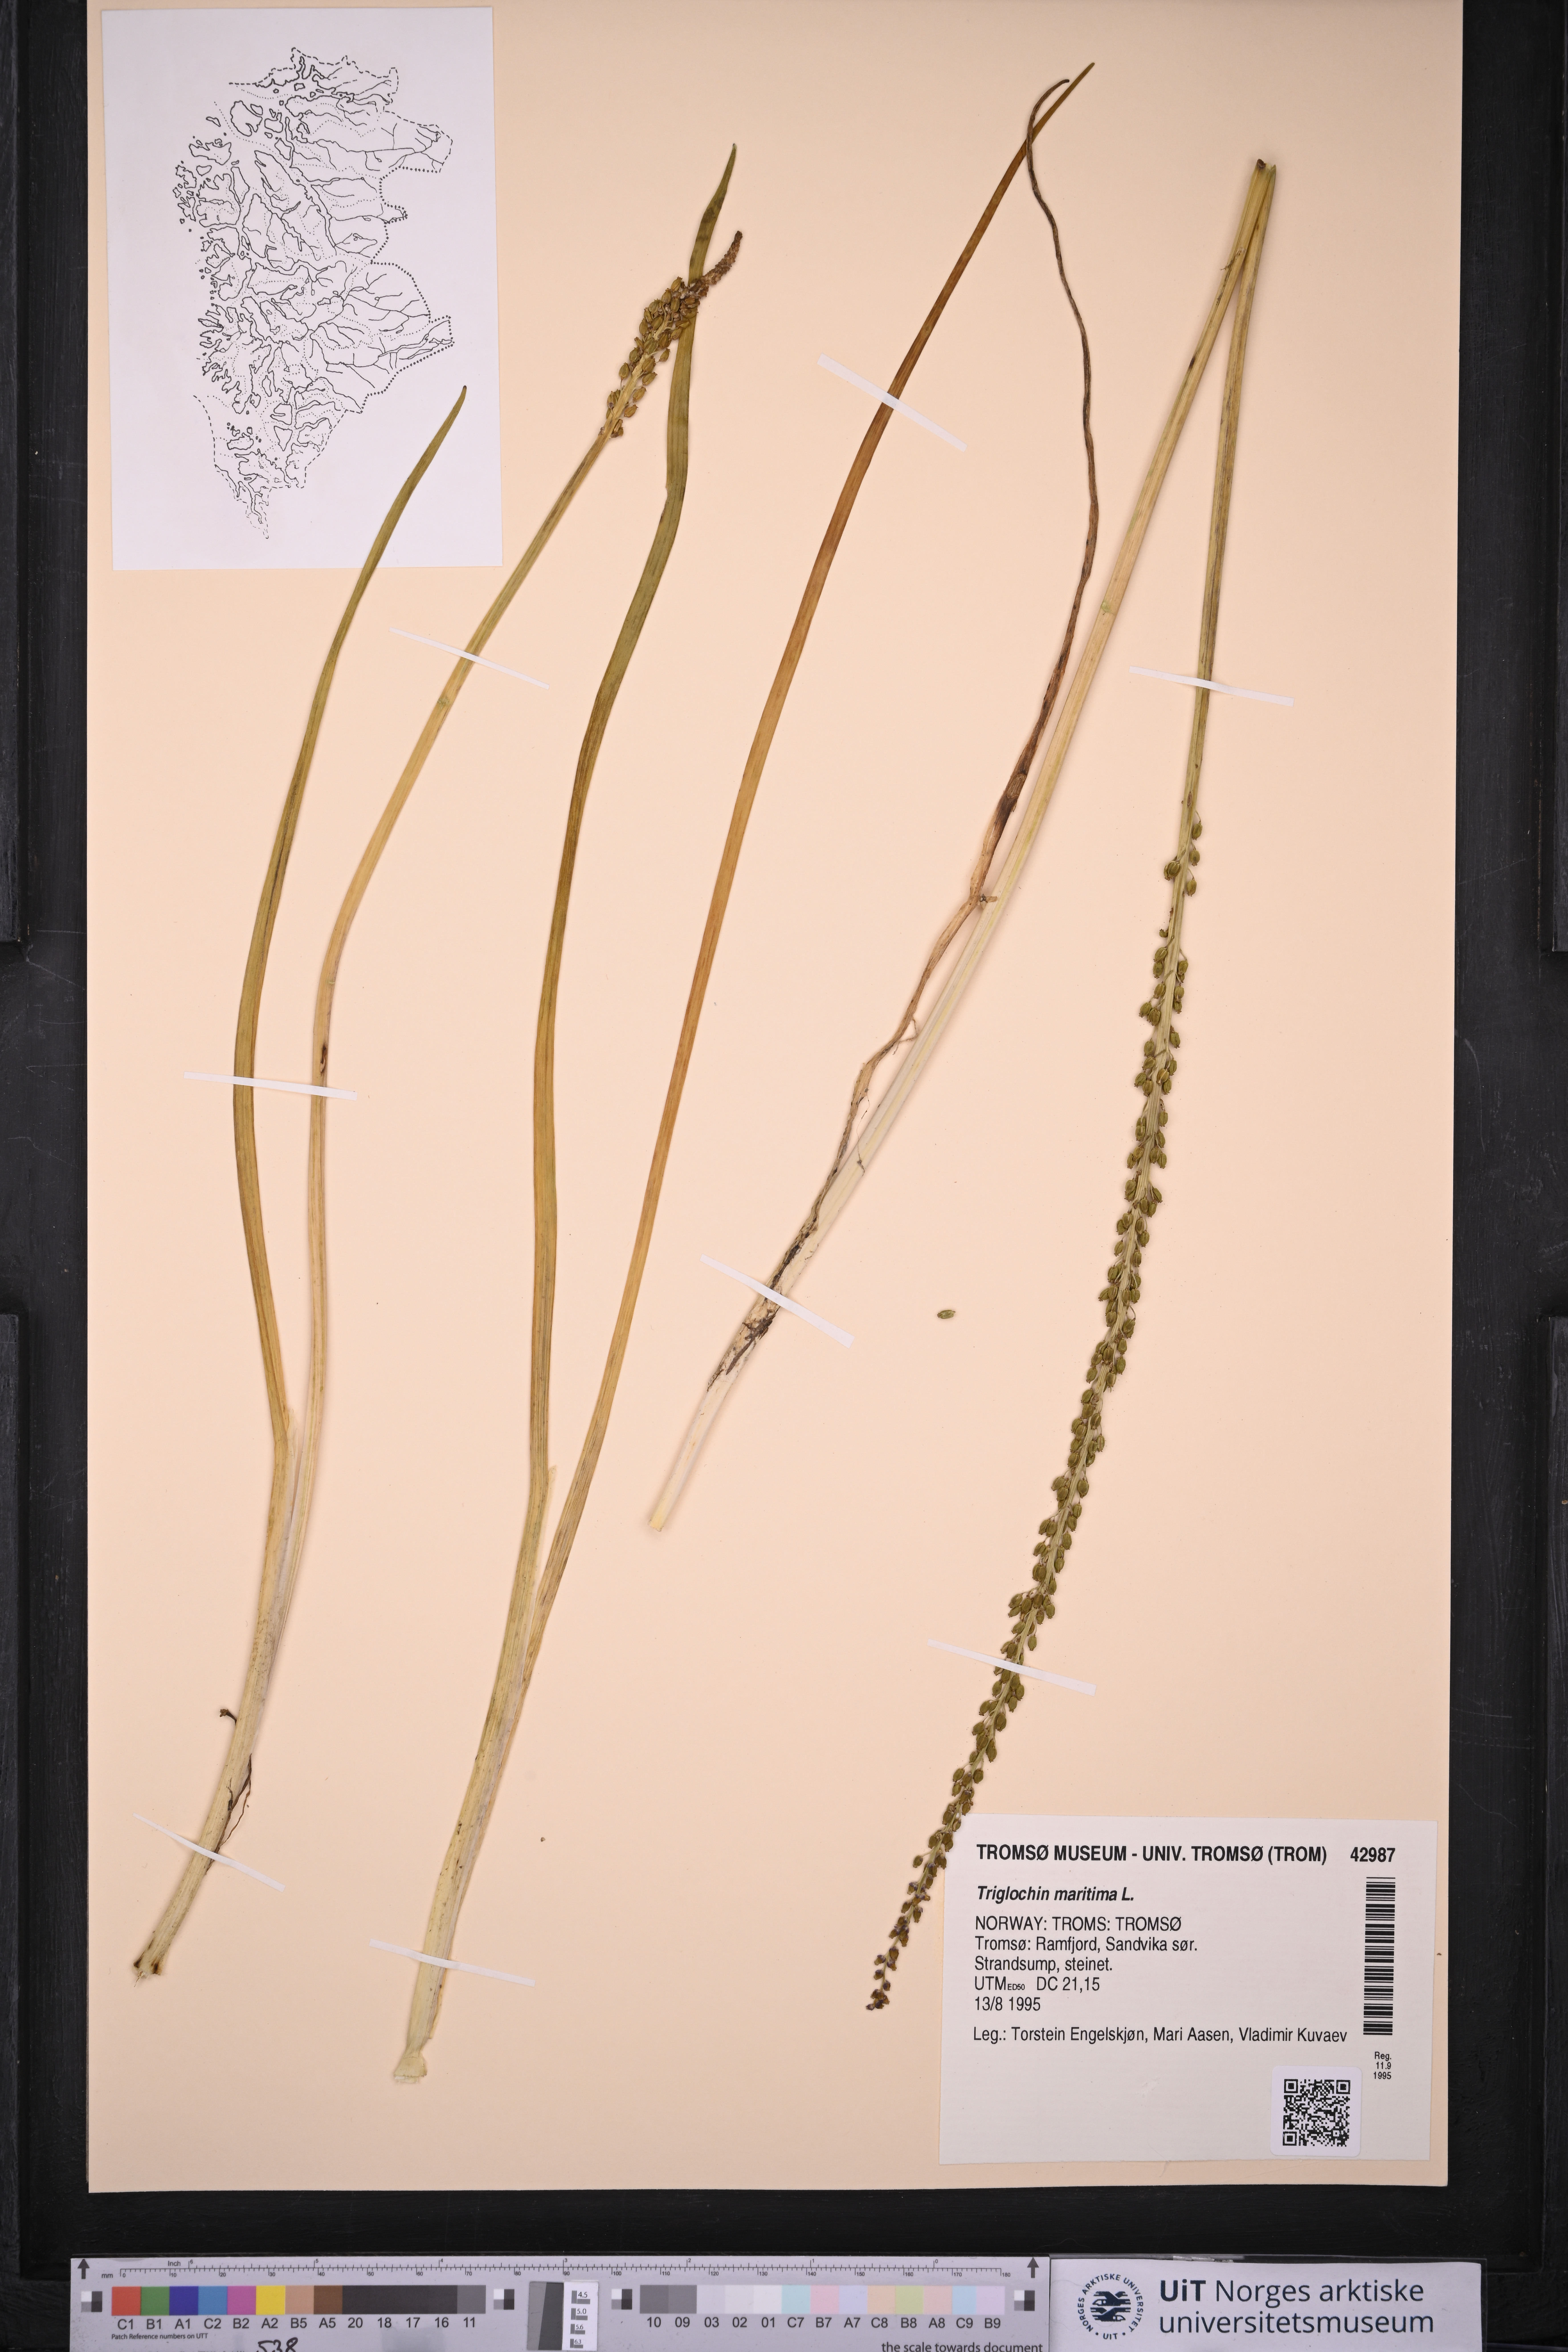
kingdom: Plantae
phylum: Tracheophyta
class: Liliopsida
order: Alismatales
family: Juncaginaceae
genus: Triglochin
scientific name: Triglochin maritima
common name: Sea arrowgrass
